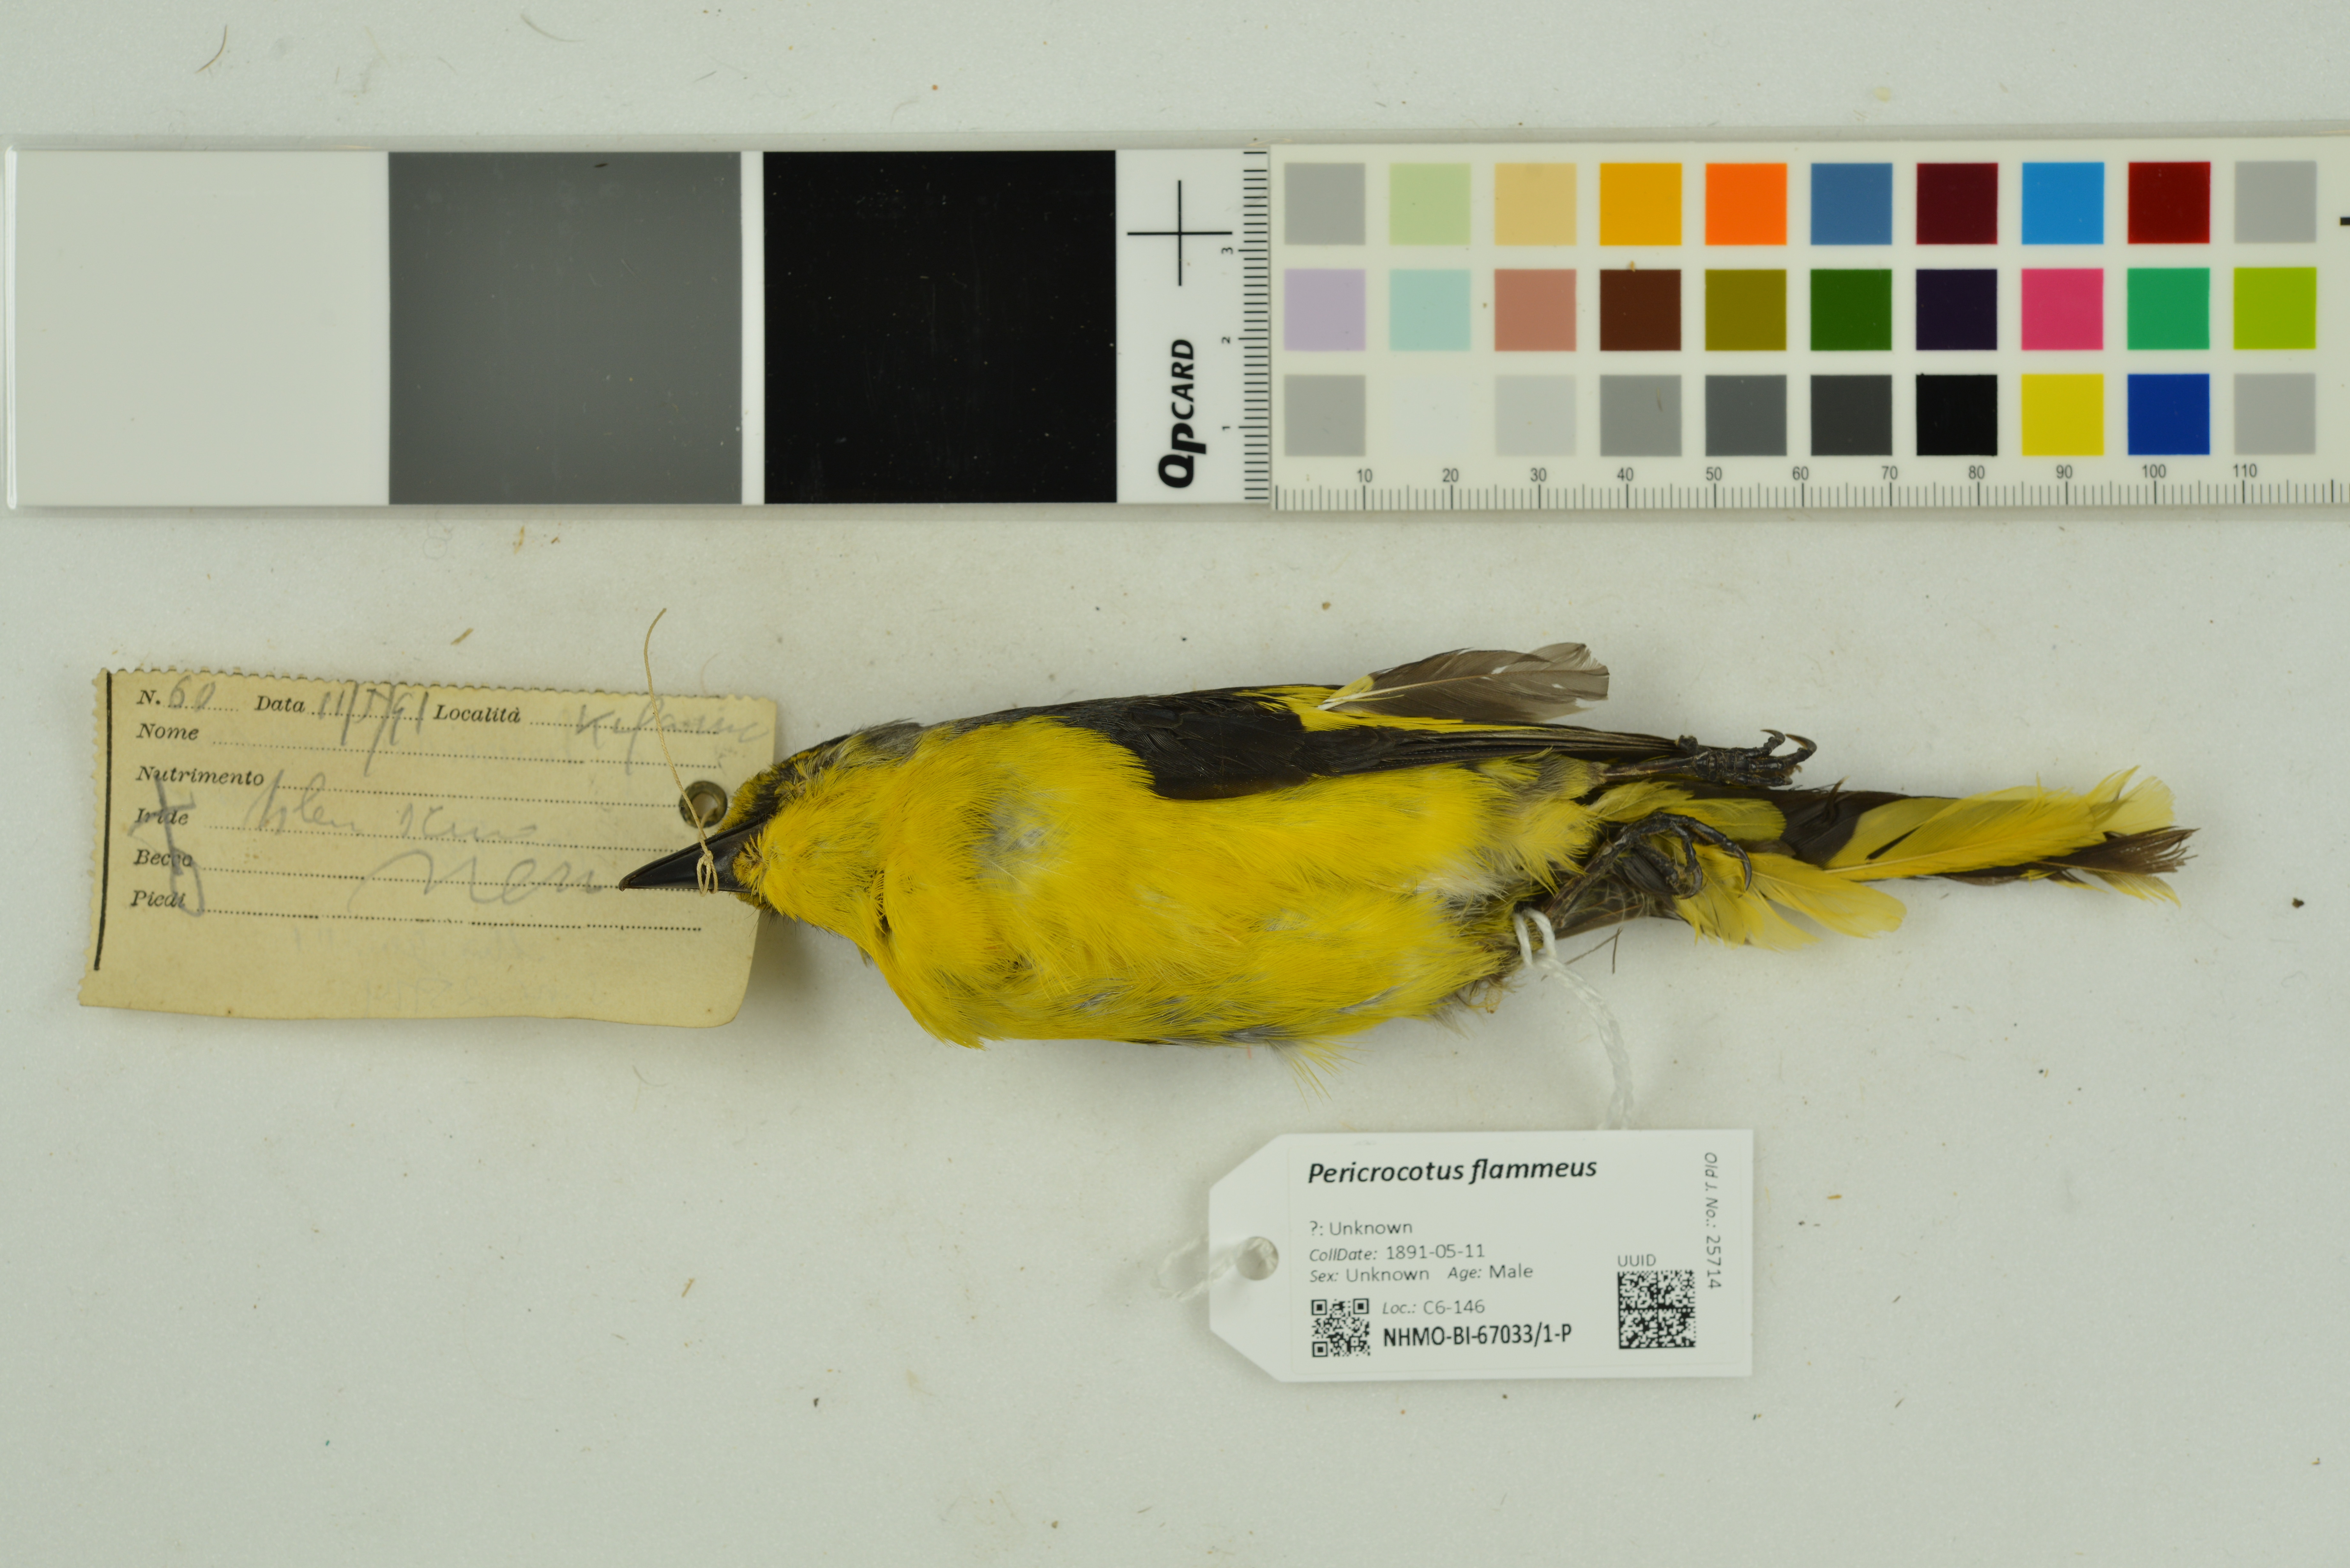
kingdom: Animalia
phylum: Chordata
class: Aves
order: Passeriformes
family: Campephagidae
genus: Pericrocotus
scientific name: Pericrocotus flammeus
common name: Orange minivet
